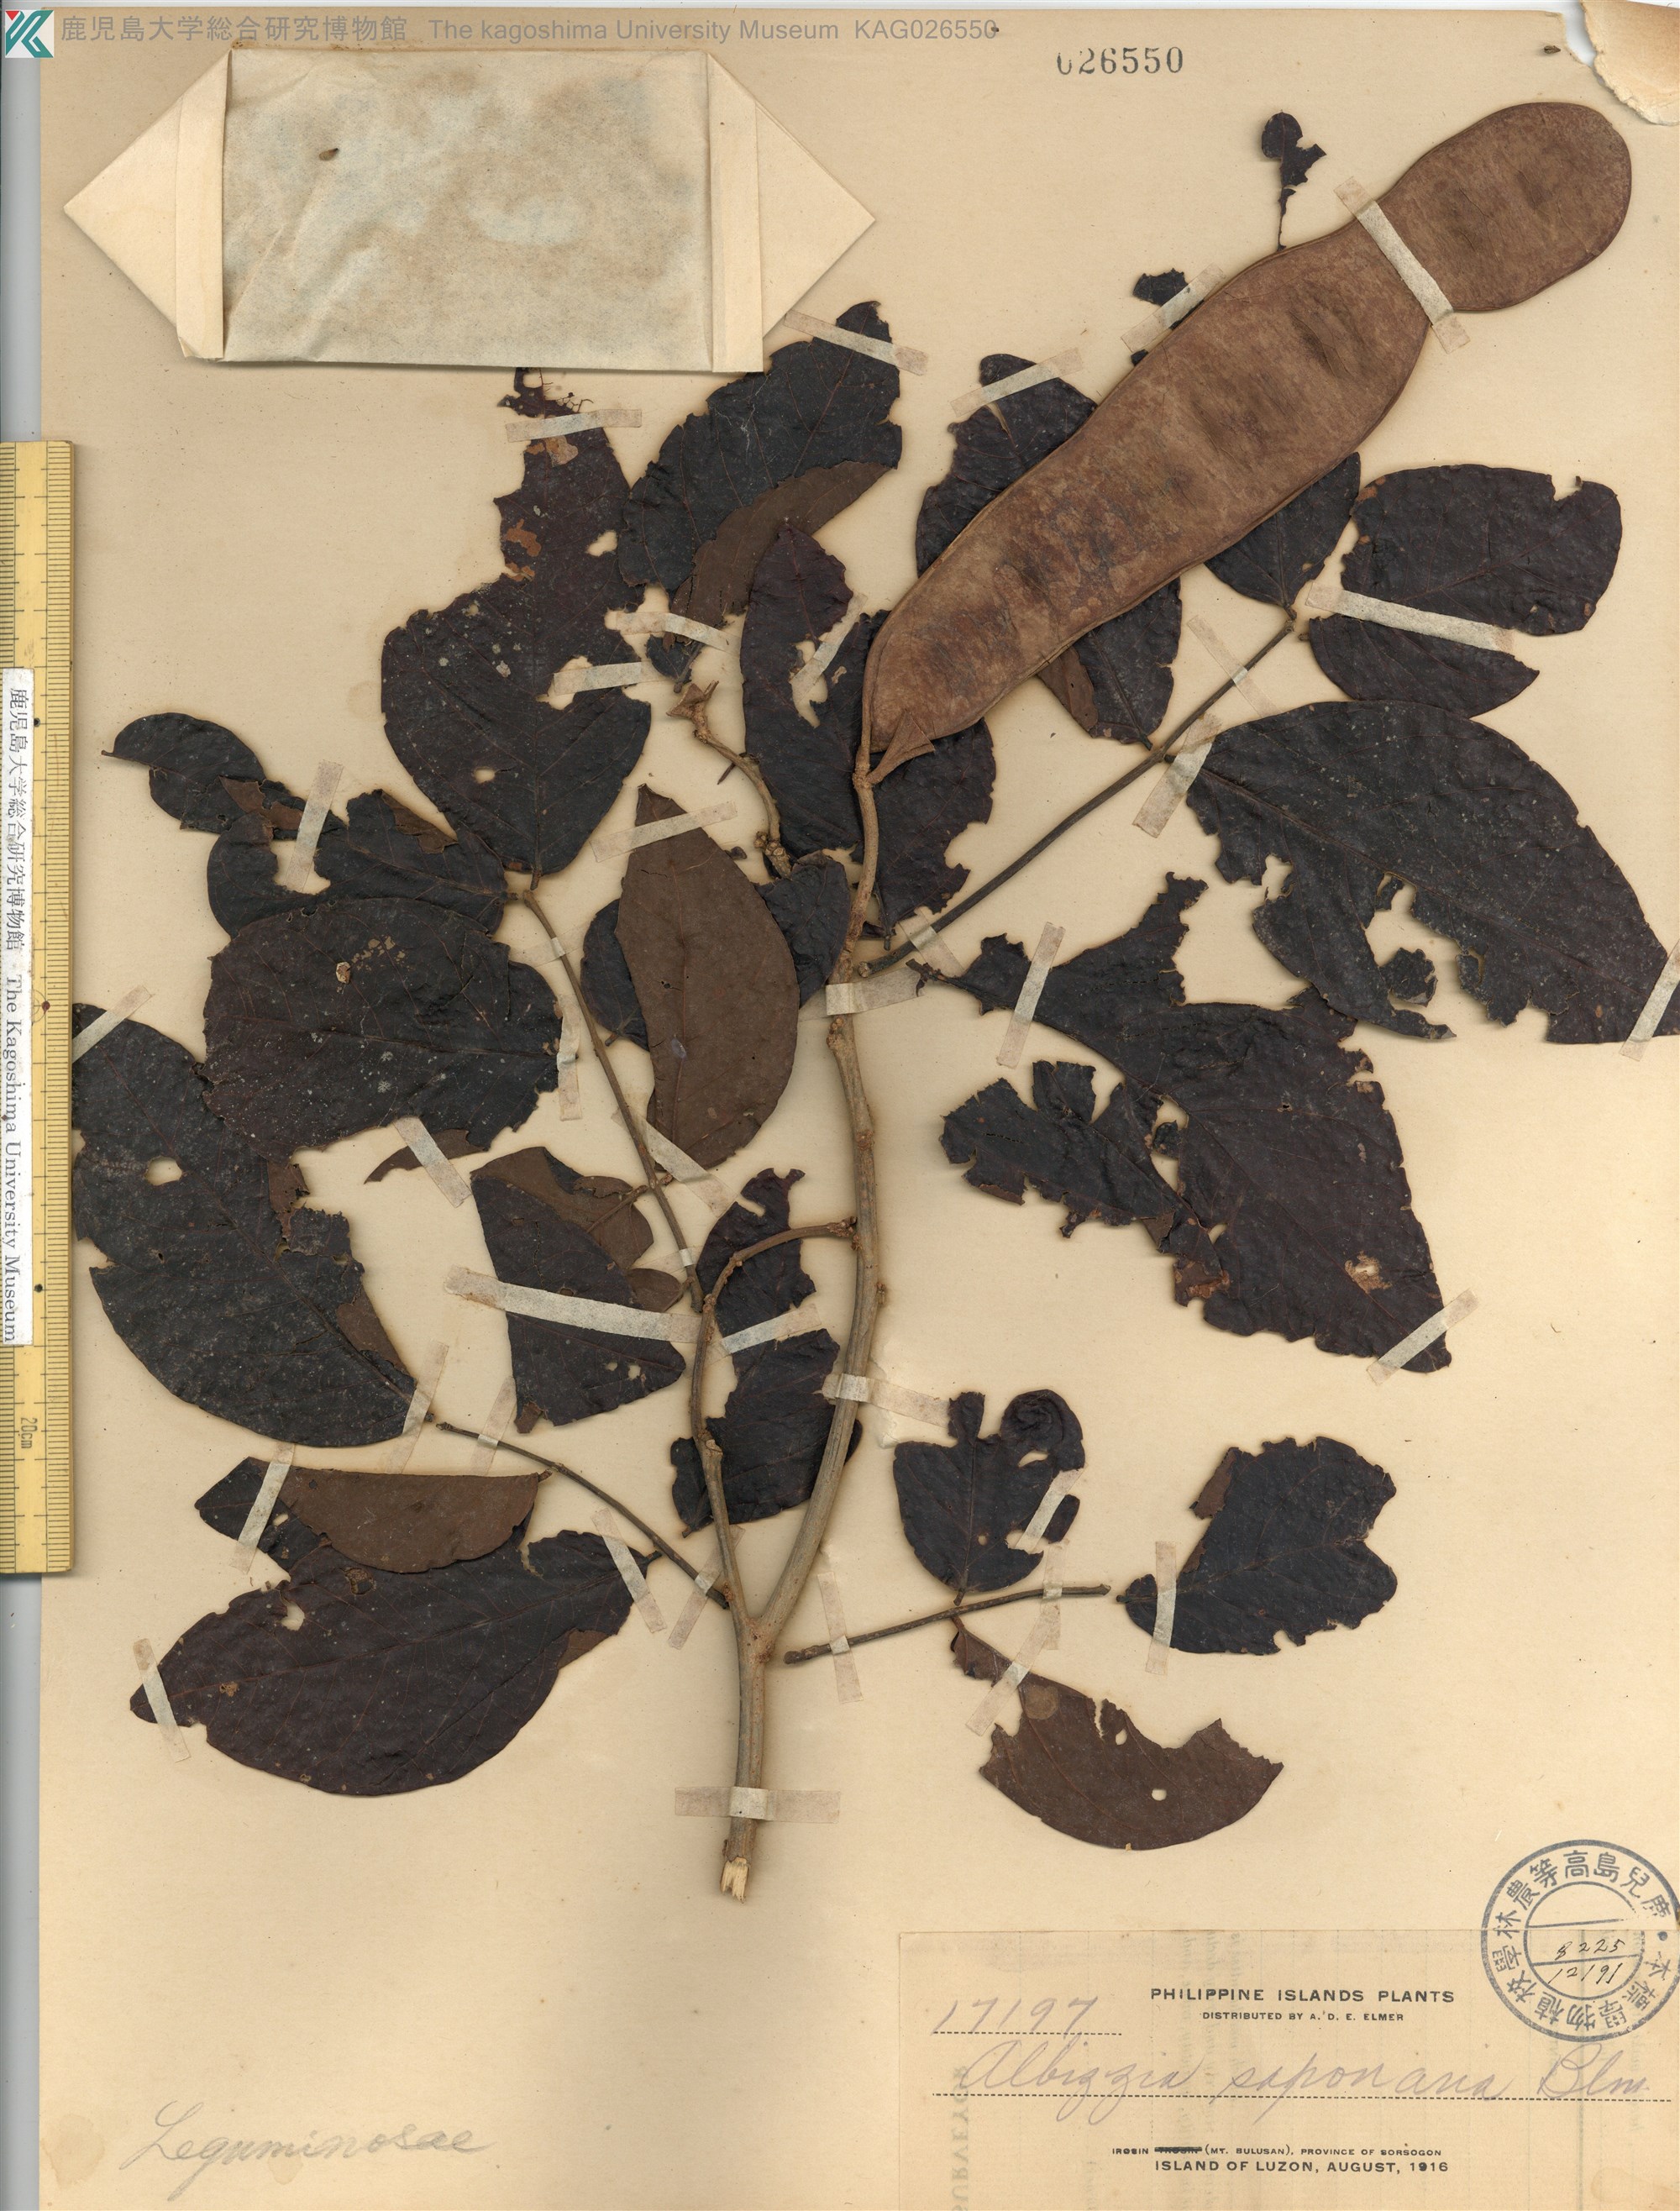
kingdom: Plantae
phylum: Tracheophyta
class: Magnoliopsida
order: Fabales
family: Fabaceae
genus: Albizia
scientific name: Albizia saponaria
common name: Whiteflower albizia
